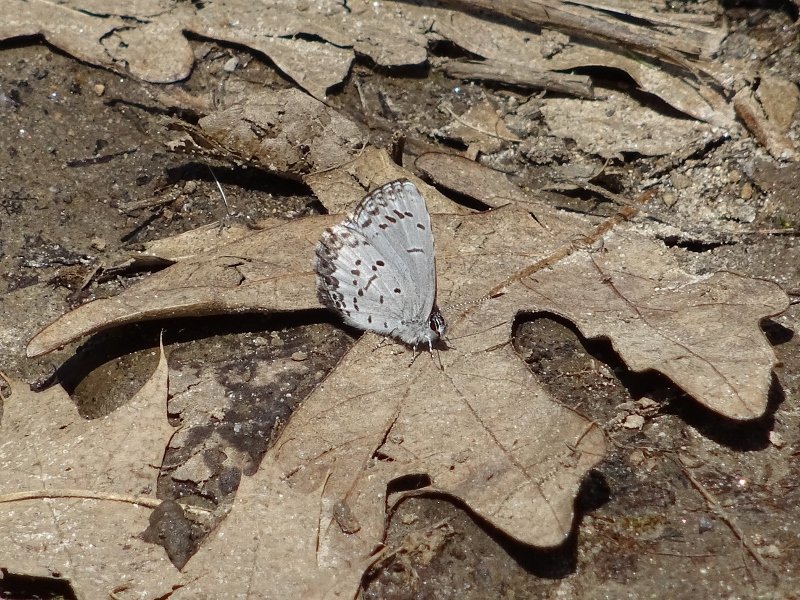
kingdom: Animalia
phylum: Arthropoda
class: Insecta
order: Lepidoptera
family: Lycaenidae
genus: Celastrina
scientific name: Celastrina
